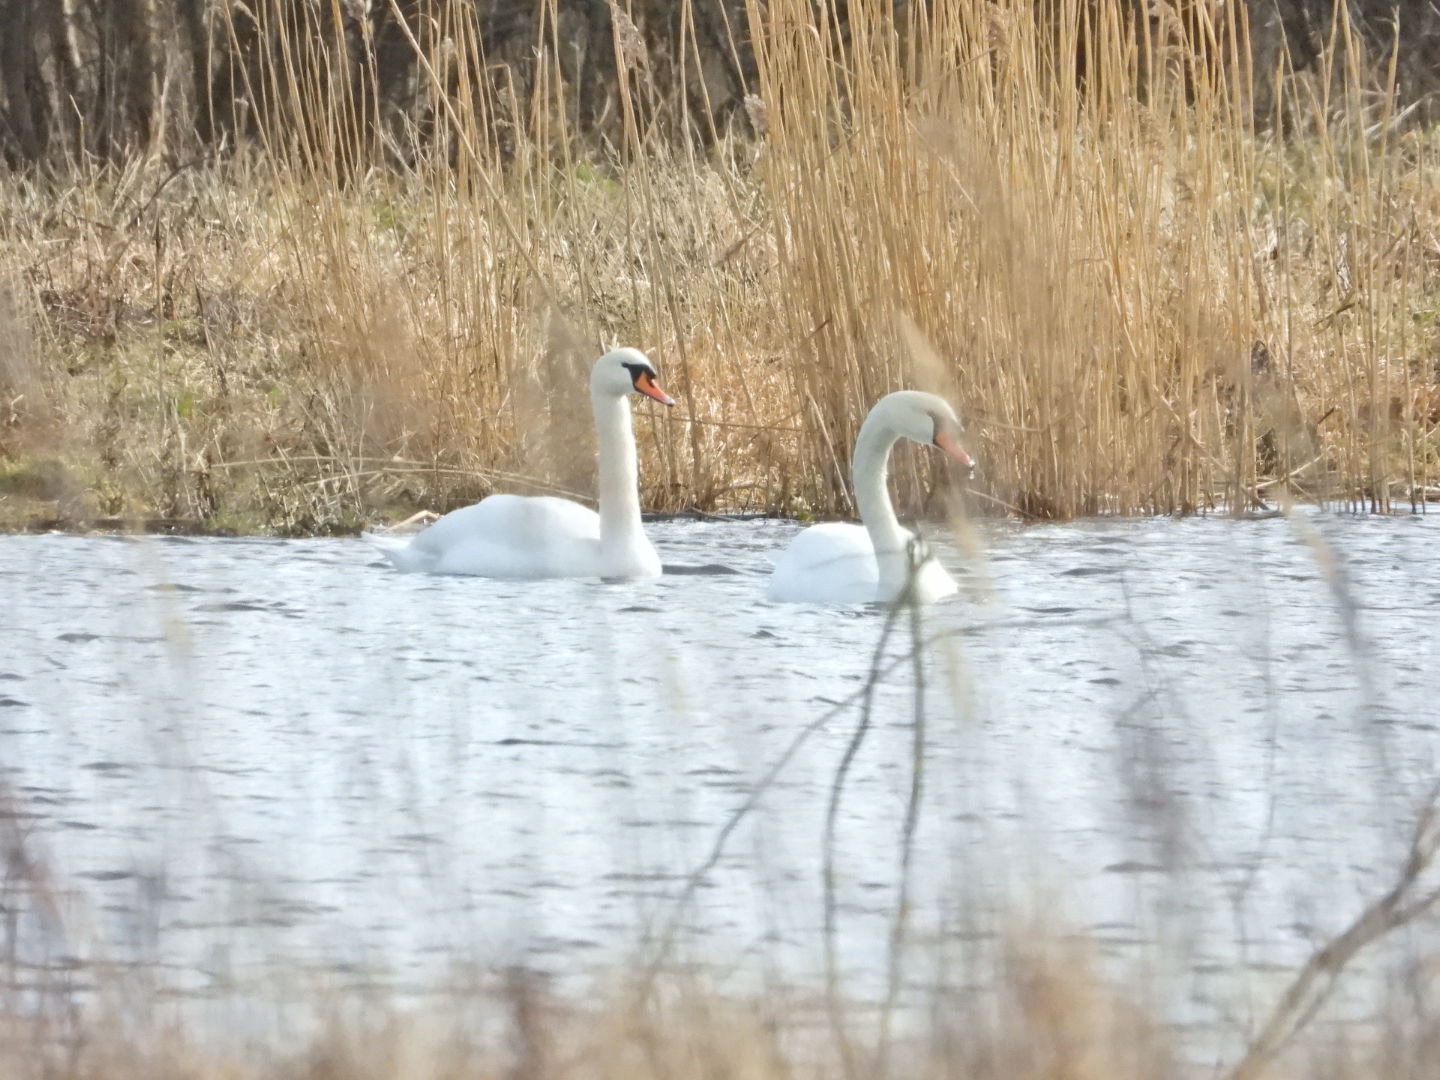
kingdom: Animalia
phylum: Chordata
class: Aves
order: Anseriformes
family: Anatidae
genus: Cygnus
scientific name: Cygnus olor
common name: Knopsvane
